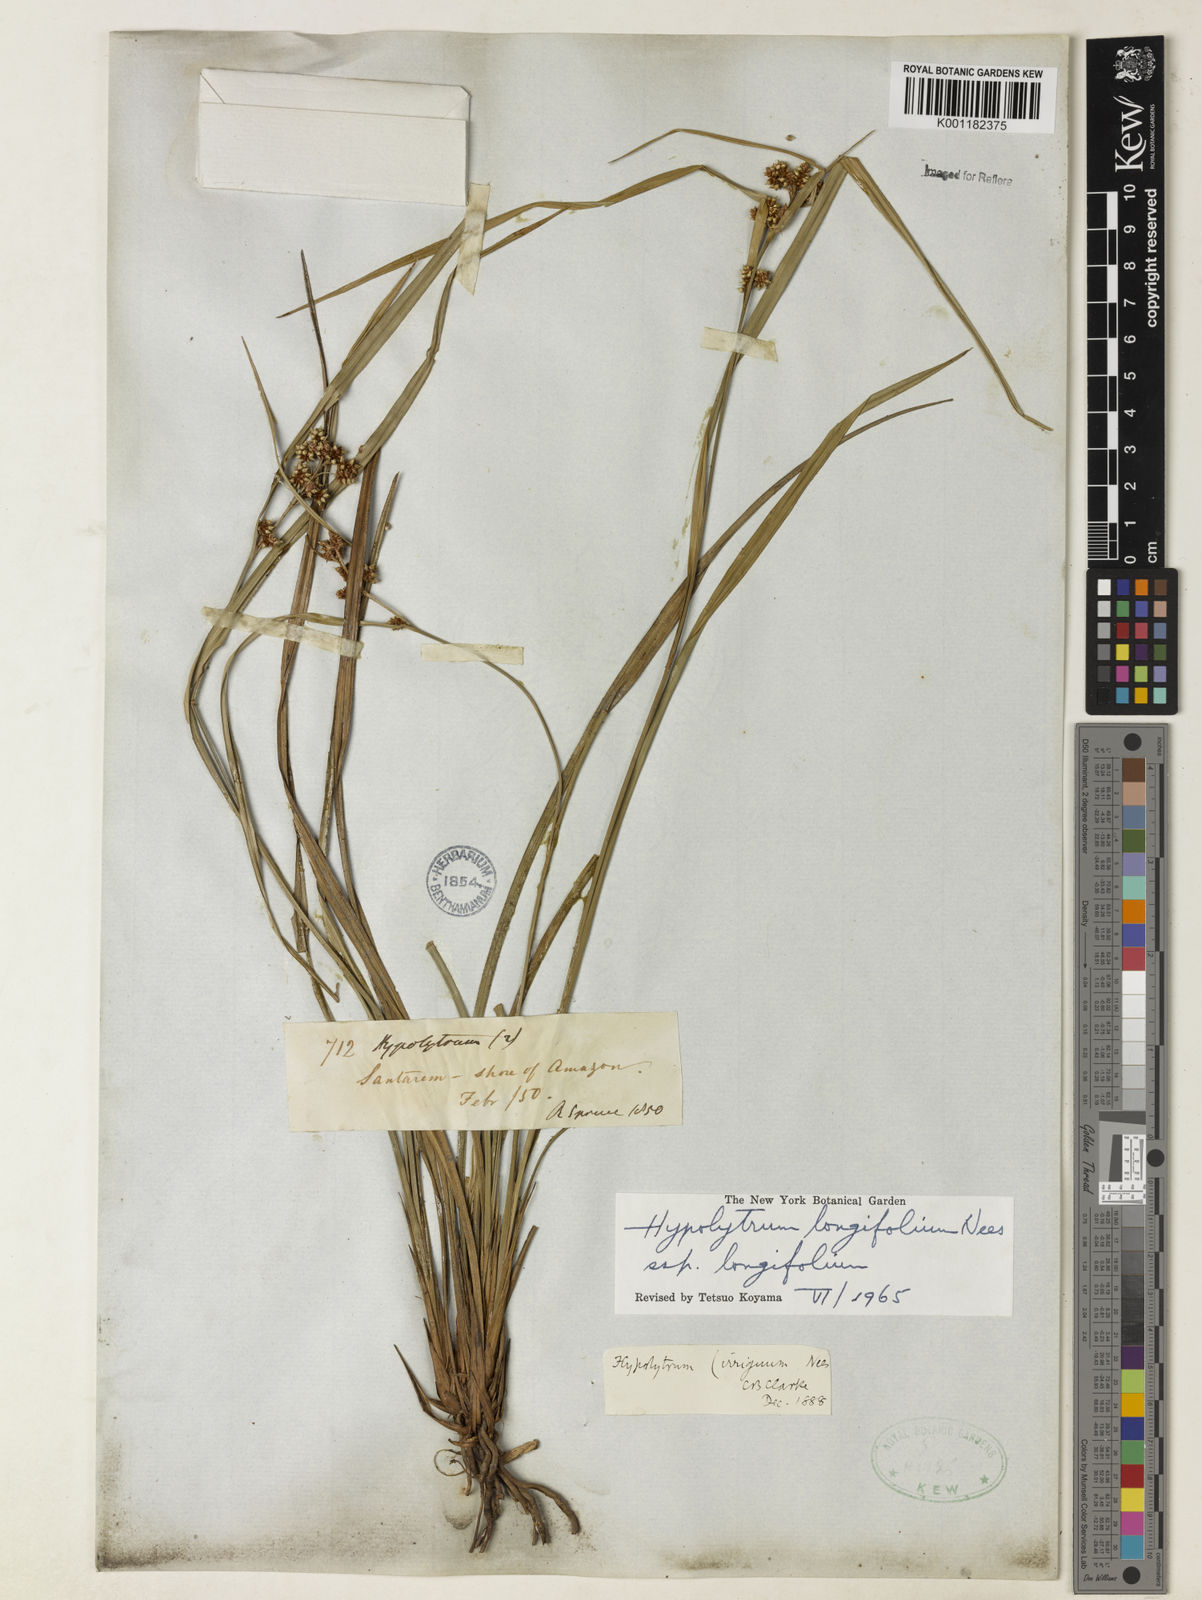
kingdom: Plantae
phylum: Tracheophyta
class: Liliopsida
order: Poales
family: Cyperaceae
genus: Hypolytrum
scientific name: Hypolytrum longifolium
